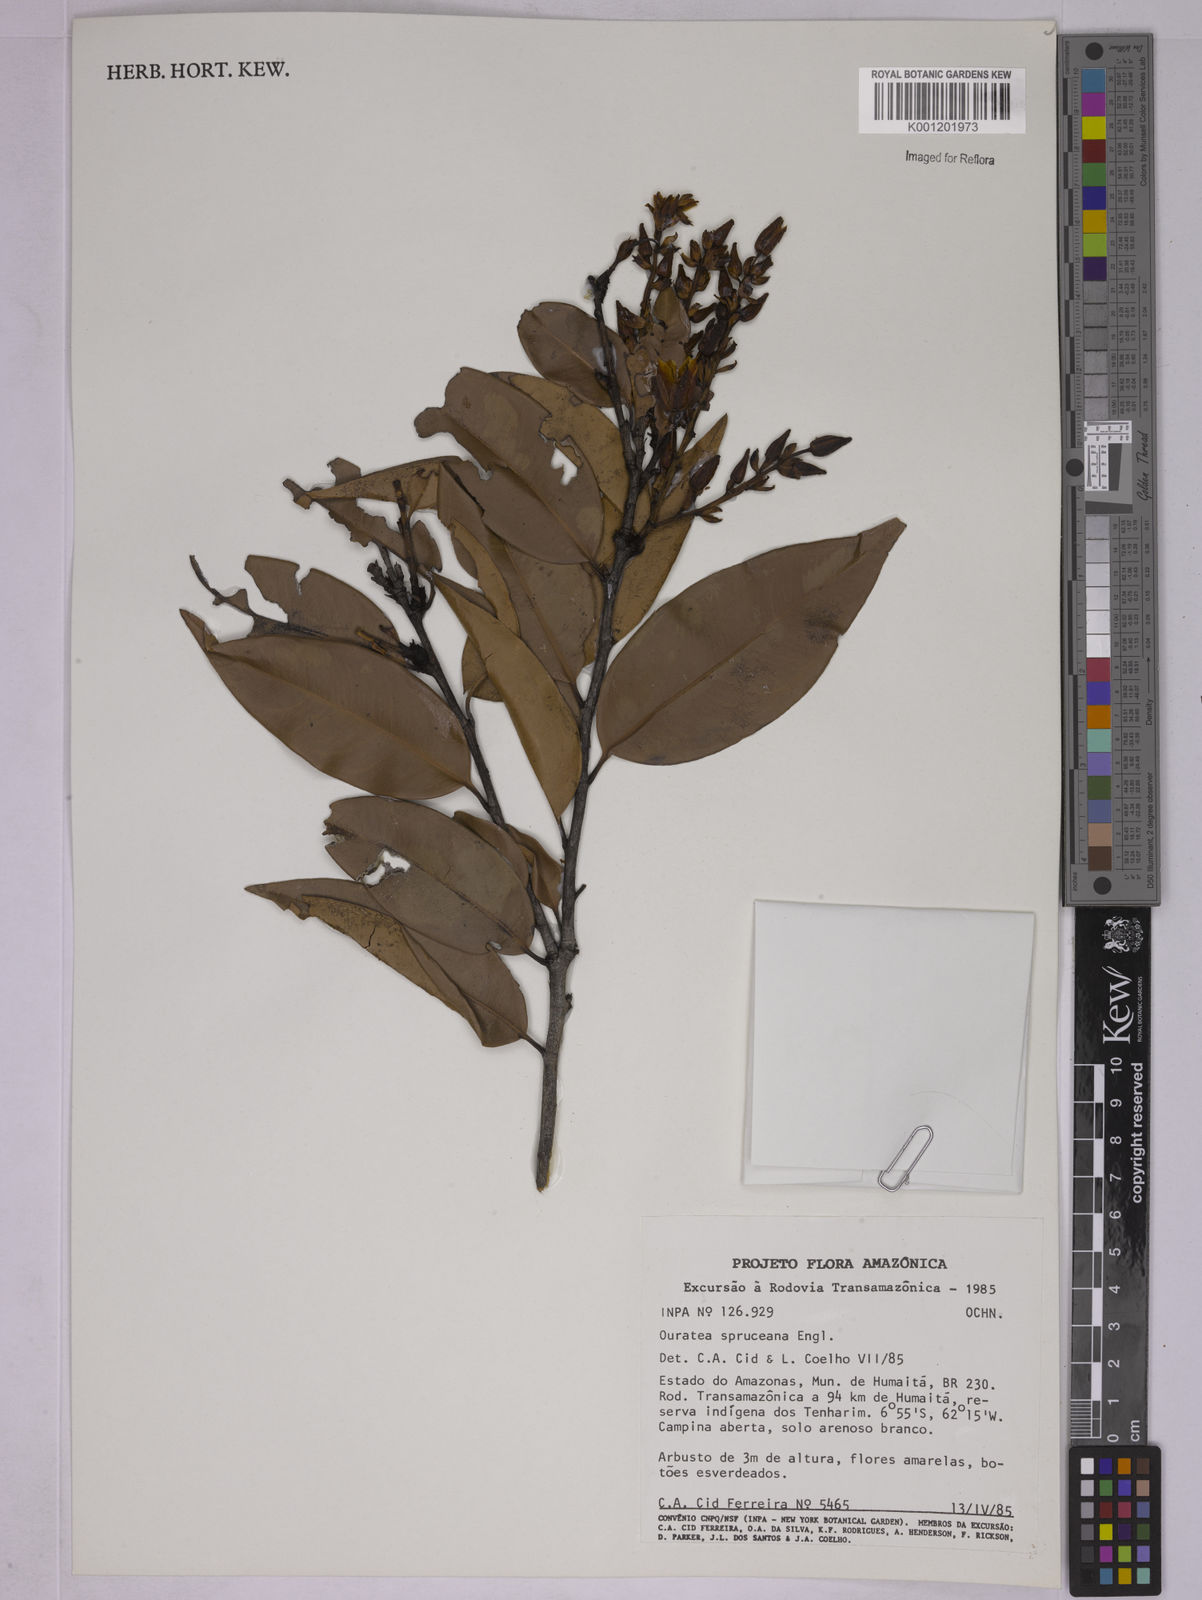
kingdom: Plantae
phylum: Tracheophyta
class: Magnoliopsida
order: Malpighiales
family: Ochnaceae
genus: Ouratea
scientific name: Ouratea spruceana
